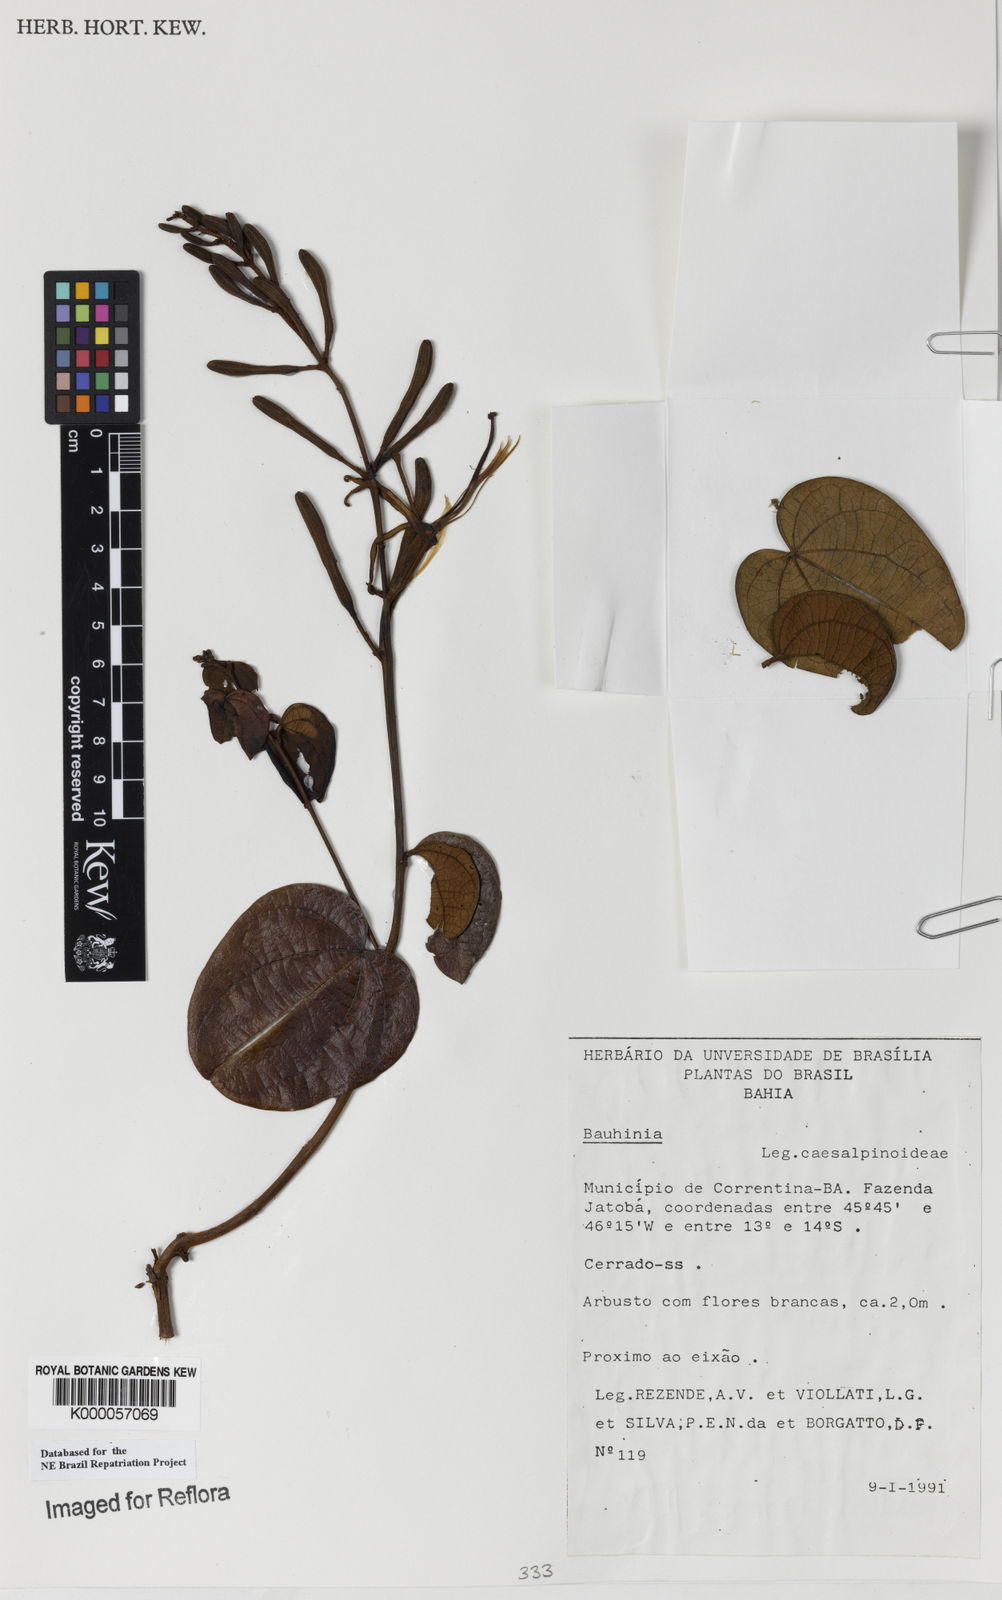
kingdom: Plantae
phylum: Tracheophyta
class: Magnoliopsida
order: Fabales
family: Fabaceae
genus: Bauhinia
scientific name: Bauhinia
